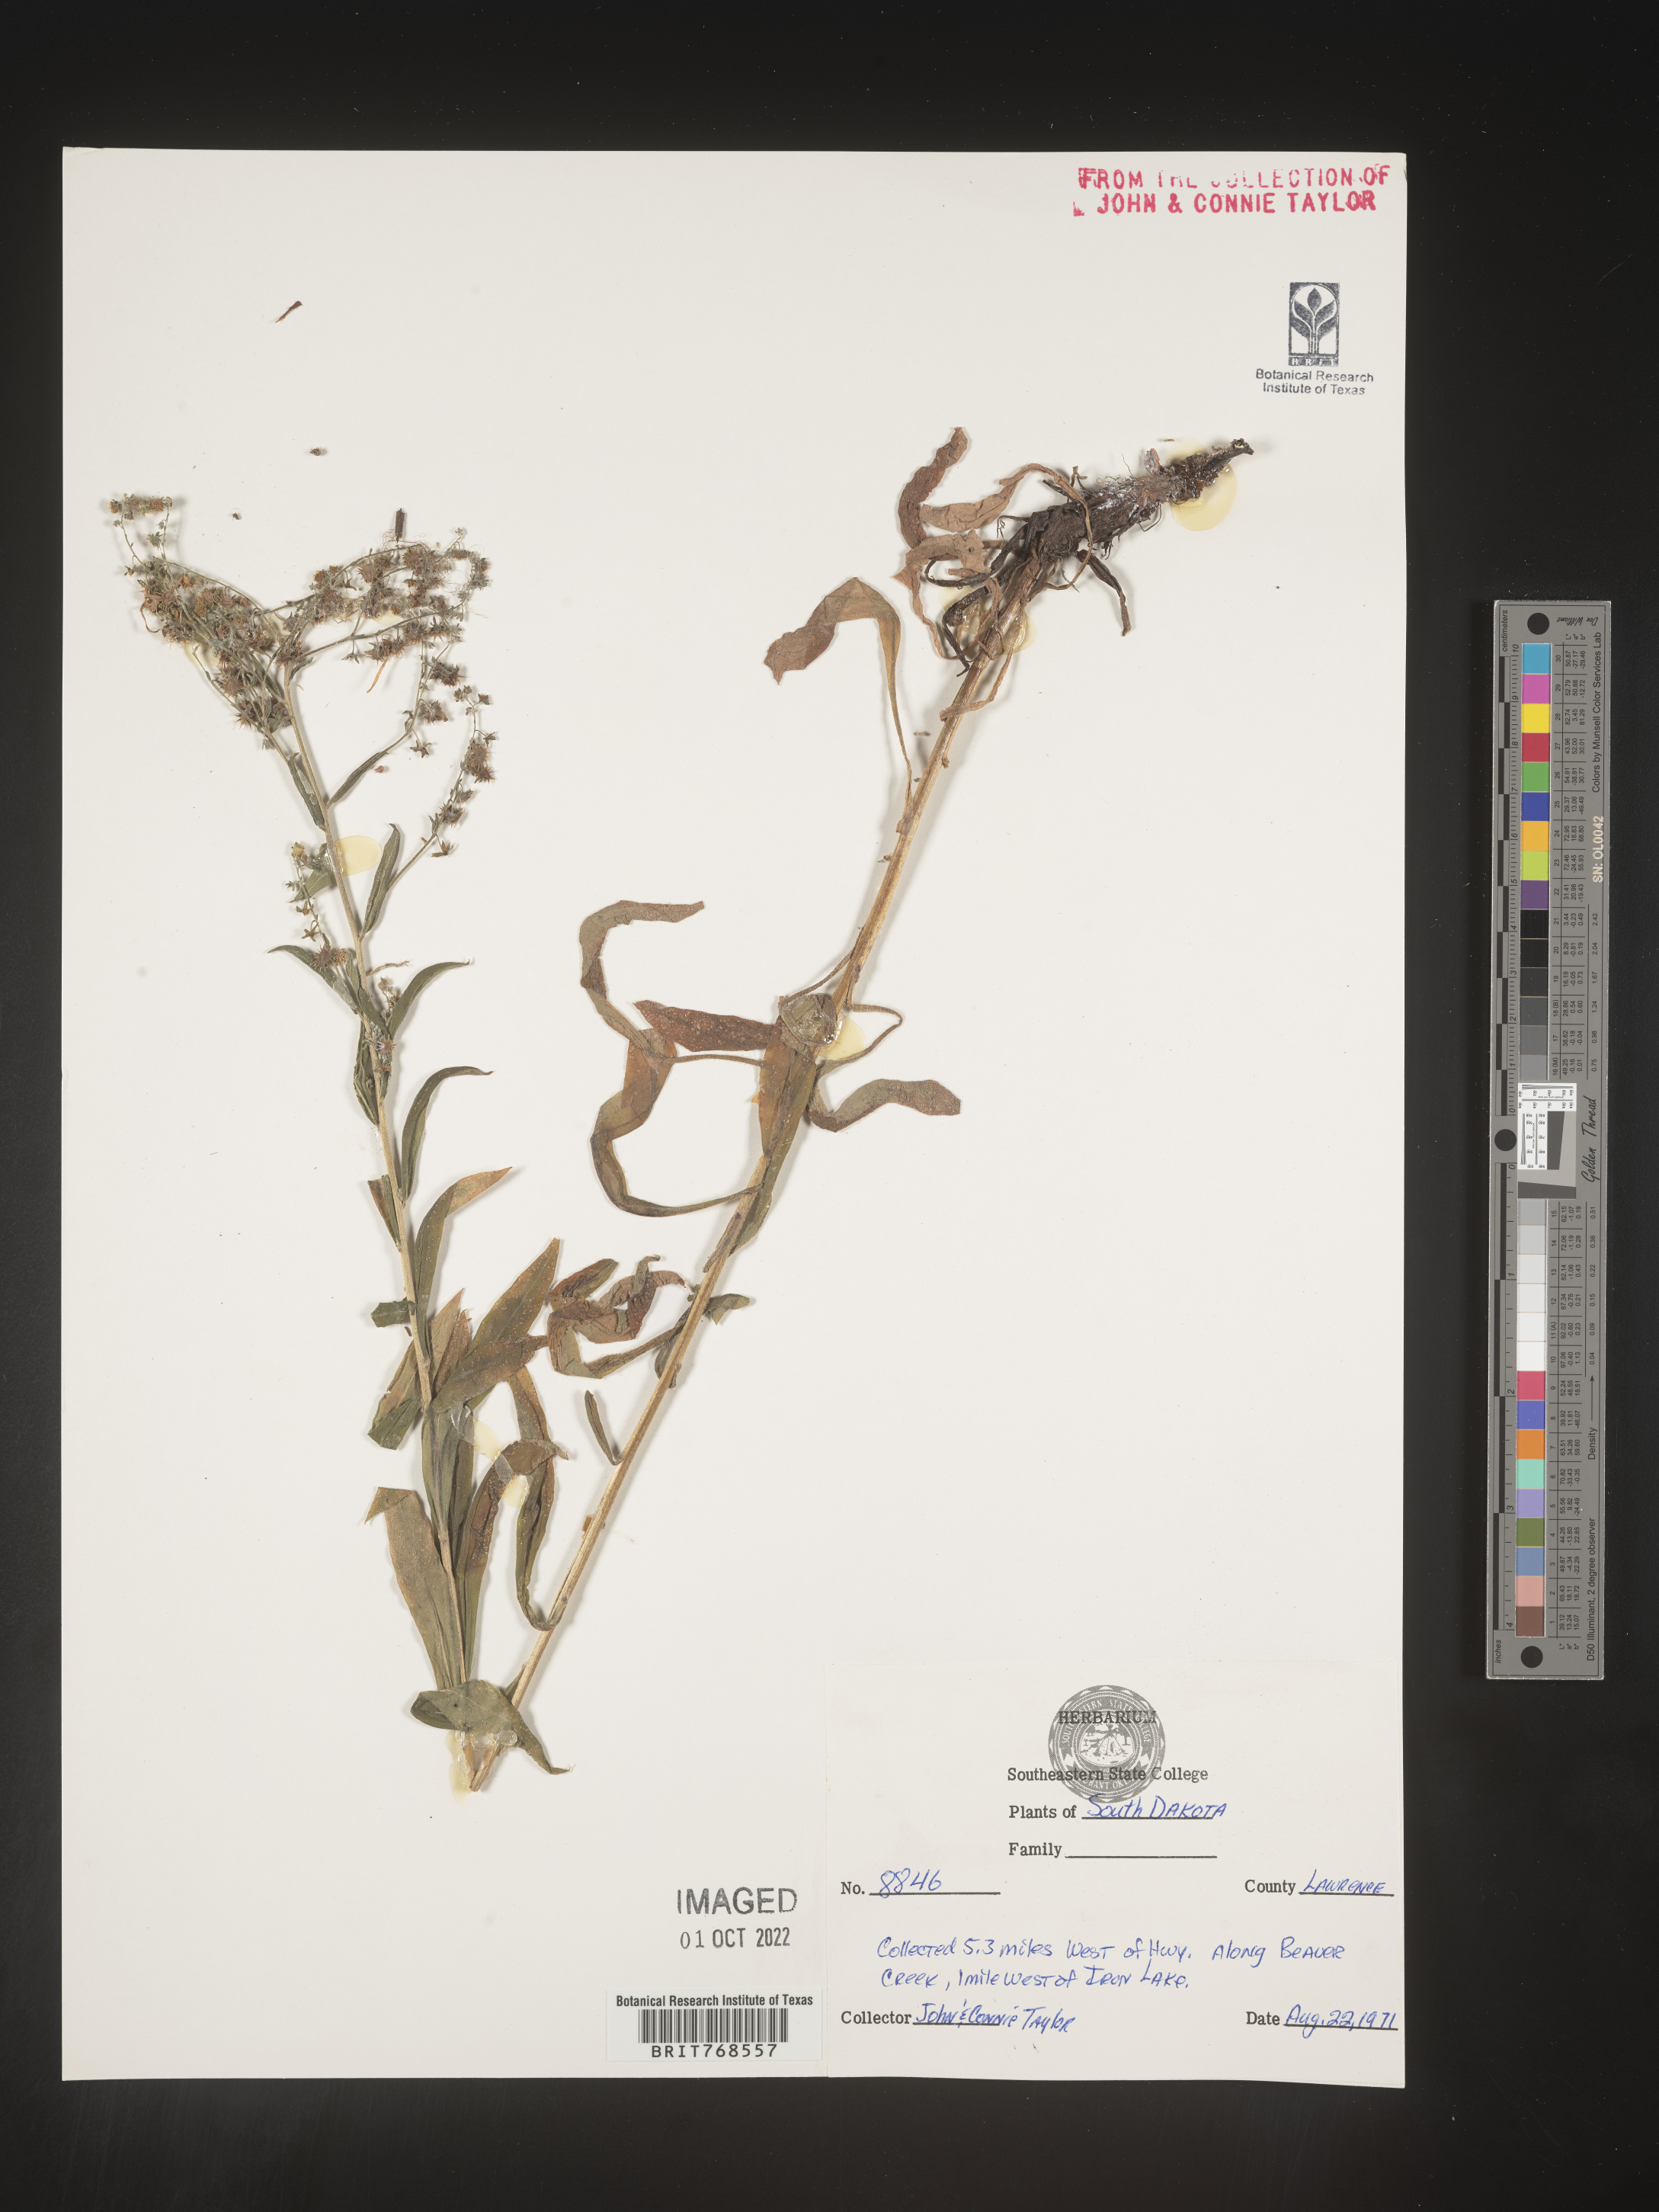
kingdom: Plantae
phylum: Tracheophyta
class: Magnoliopsida
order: Boraginales
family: Boraginaceae
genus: Lappula
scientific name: Lappula
